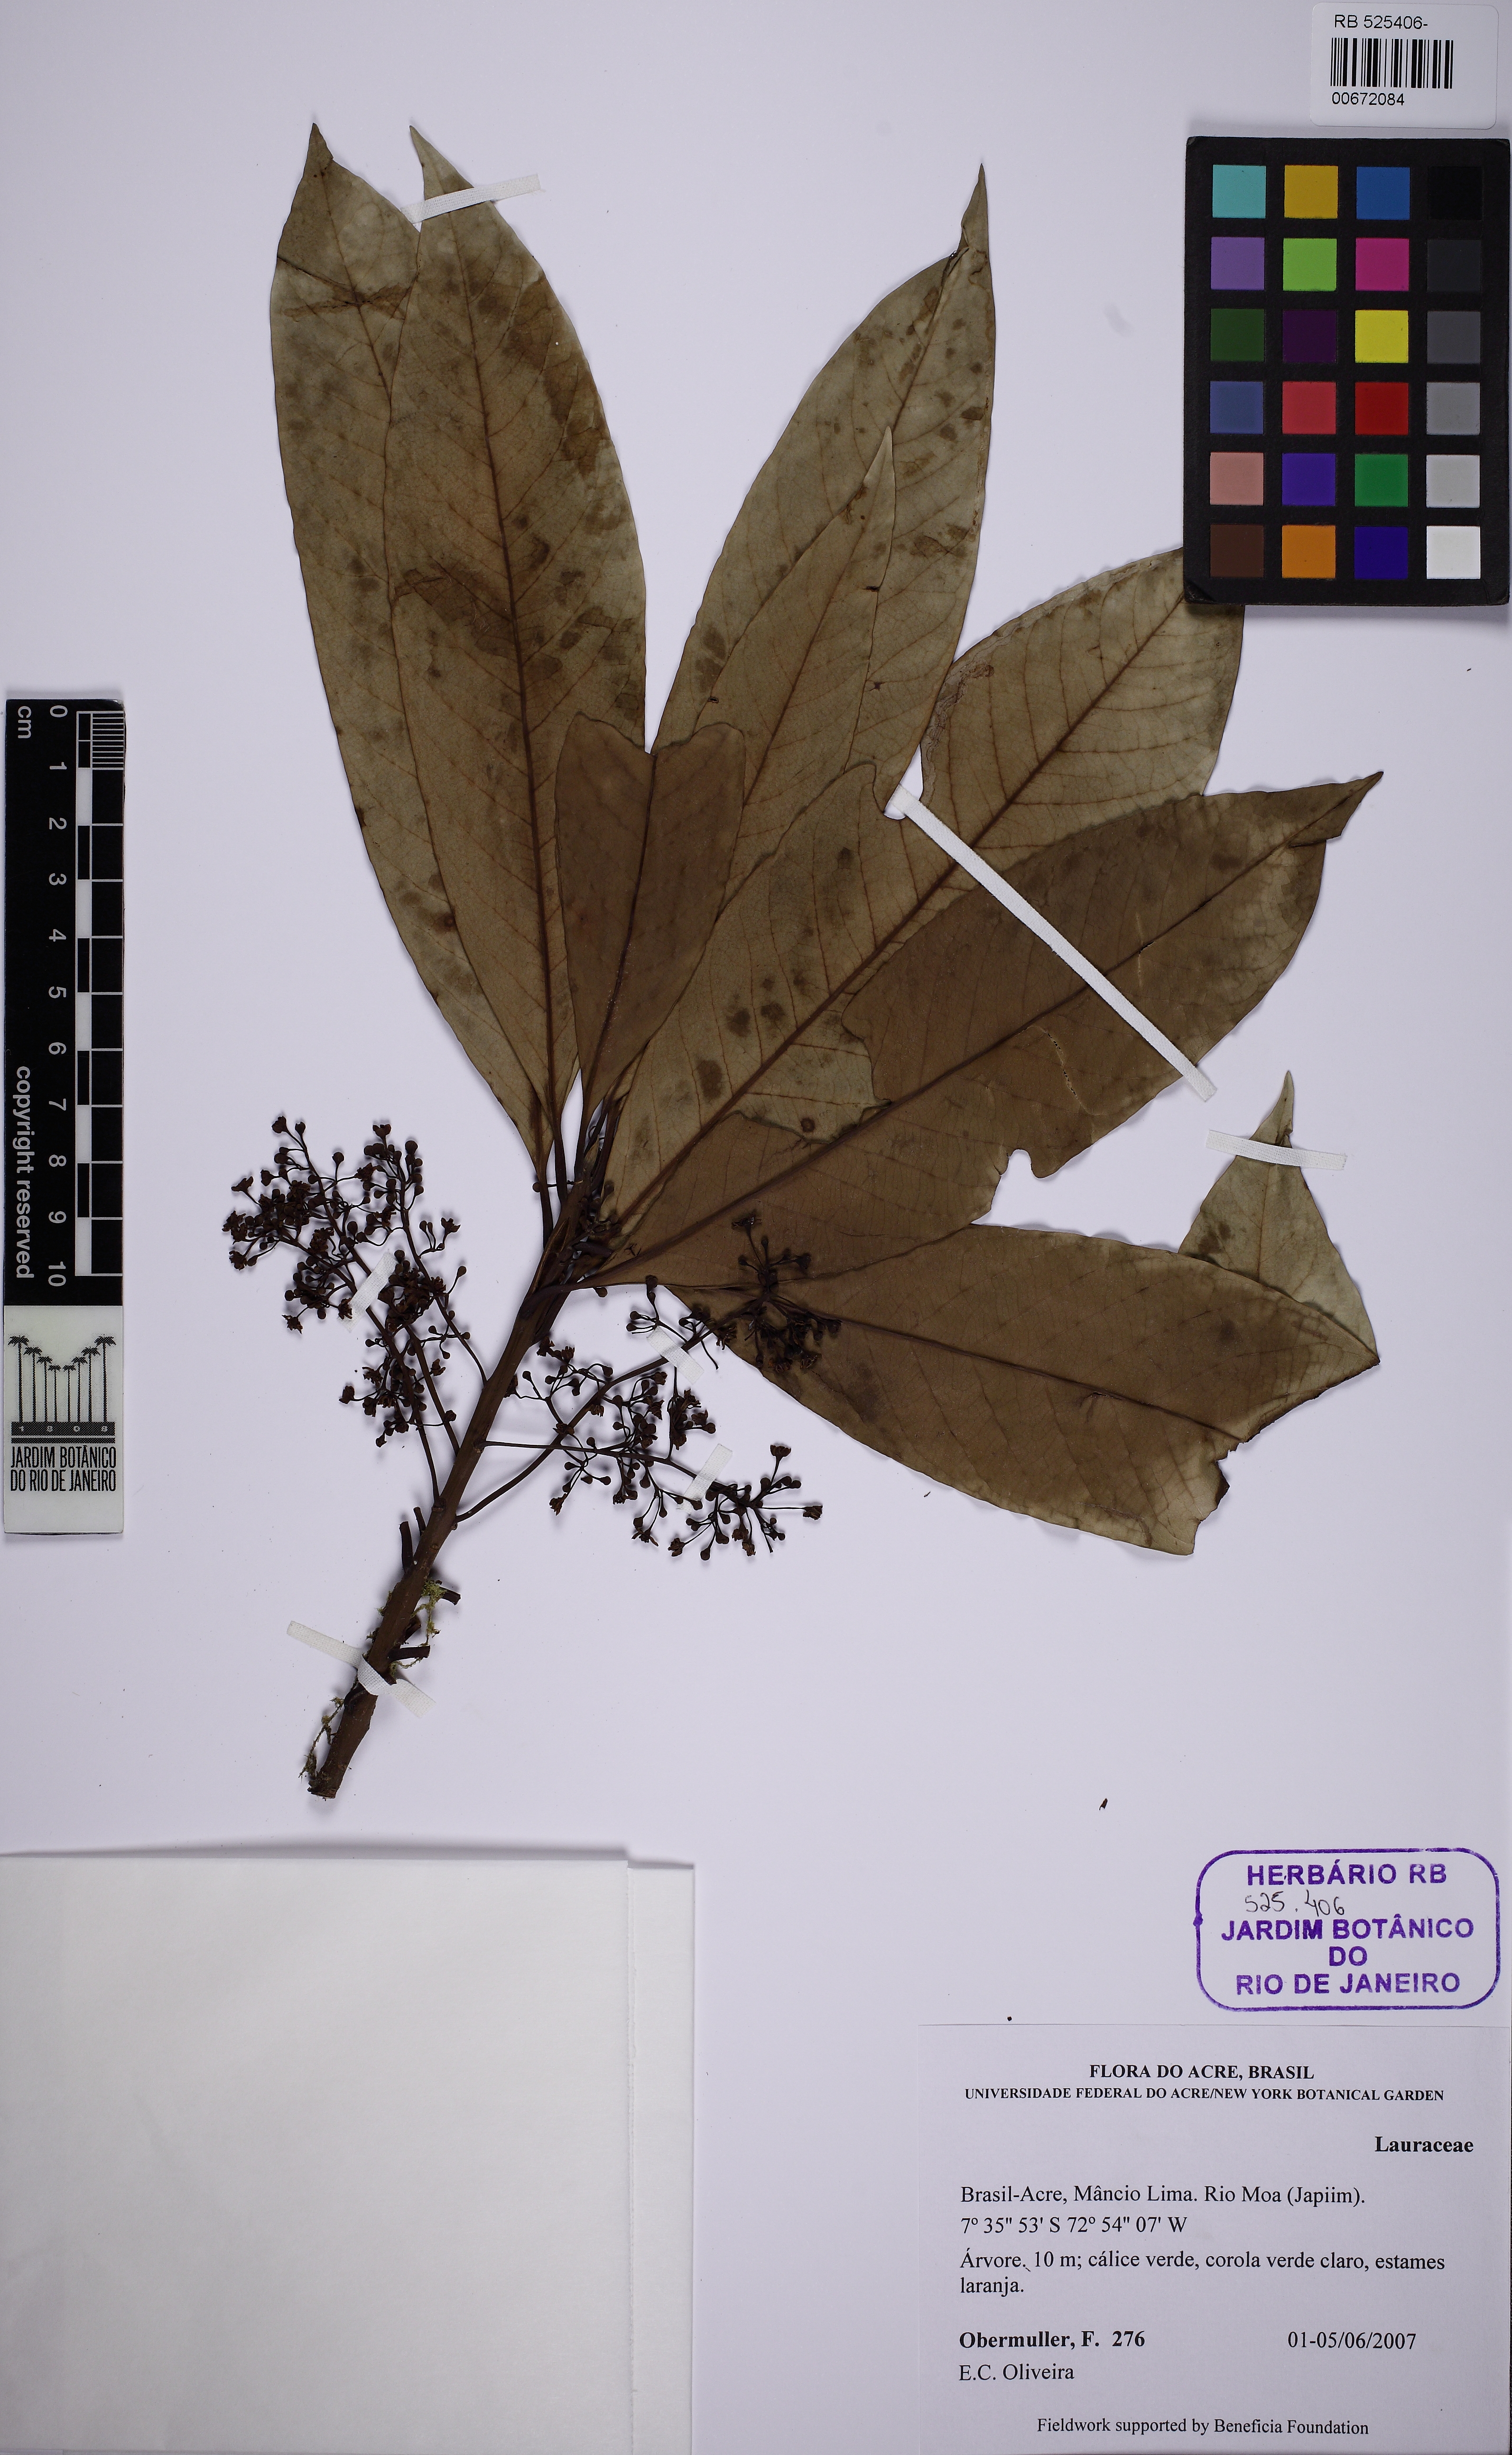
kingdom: Plantae
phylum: Tracheophyta
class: Magnoliopsida
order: Laurales
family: Lauraceae
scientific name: Lauraceae
